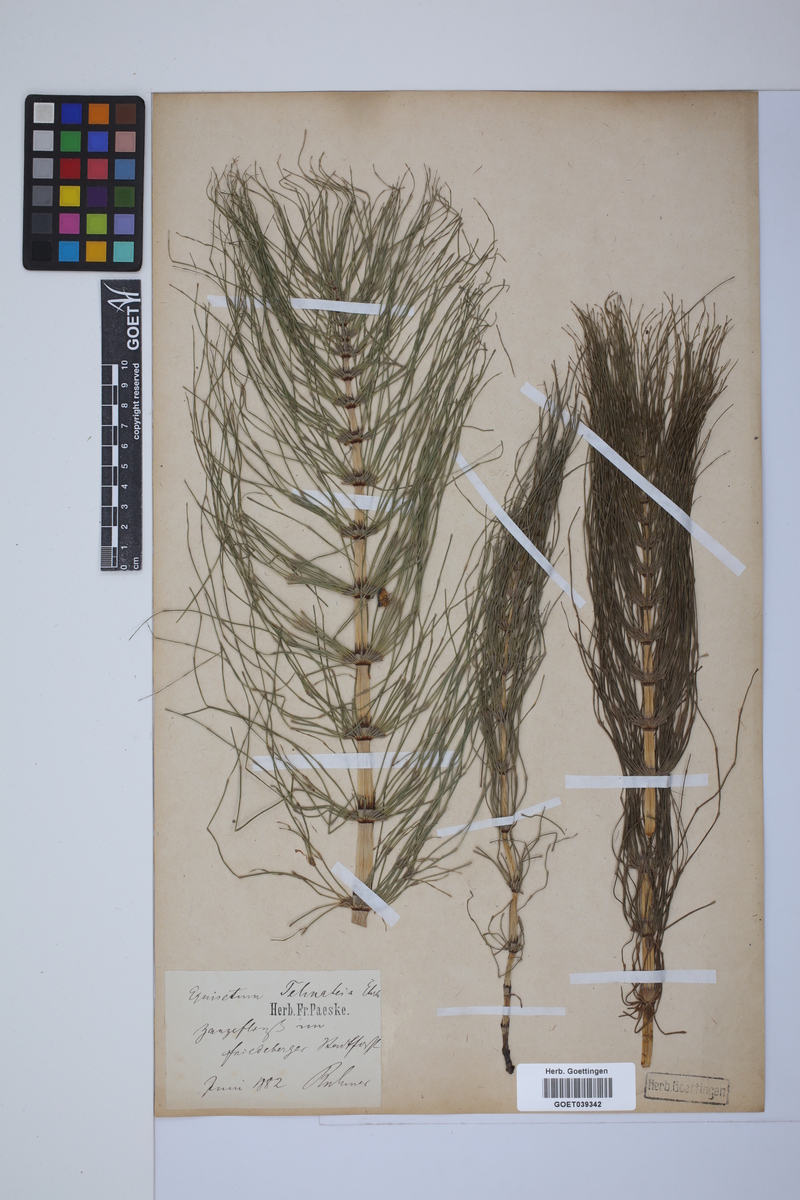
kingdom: Plantae
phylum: Tracheophyta
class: Polypodiopsida
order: Equisetales
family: Equisetaceae
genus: Equisetum
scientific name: Equisetum telmateia
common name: Great horsetail
